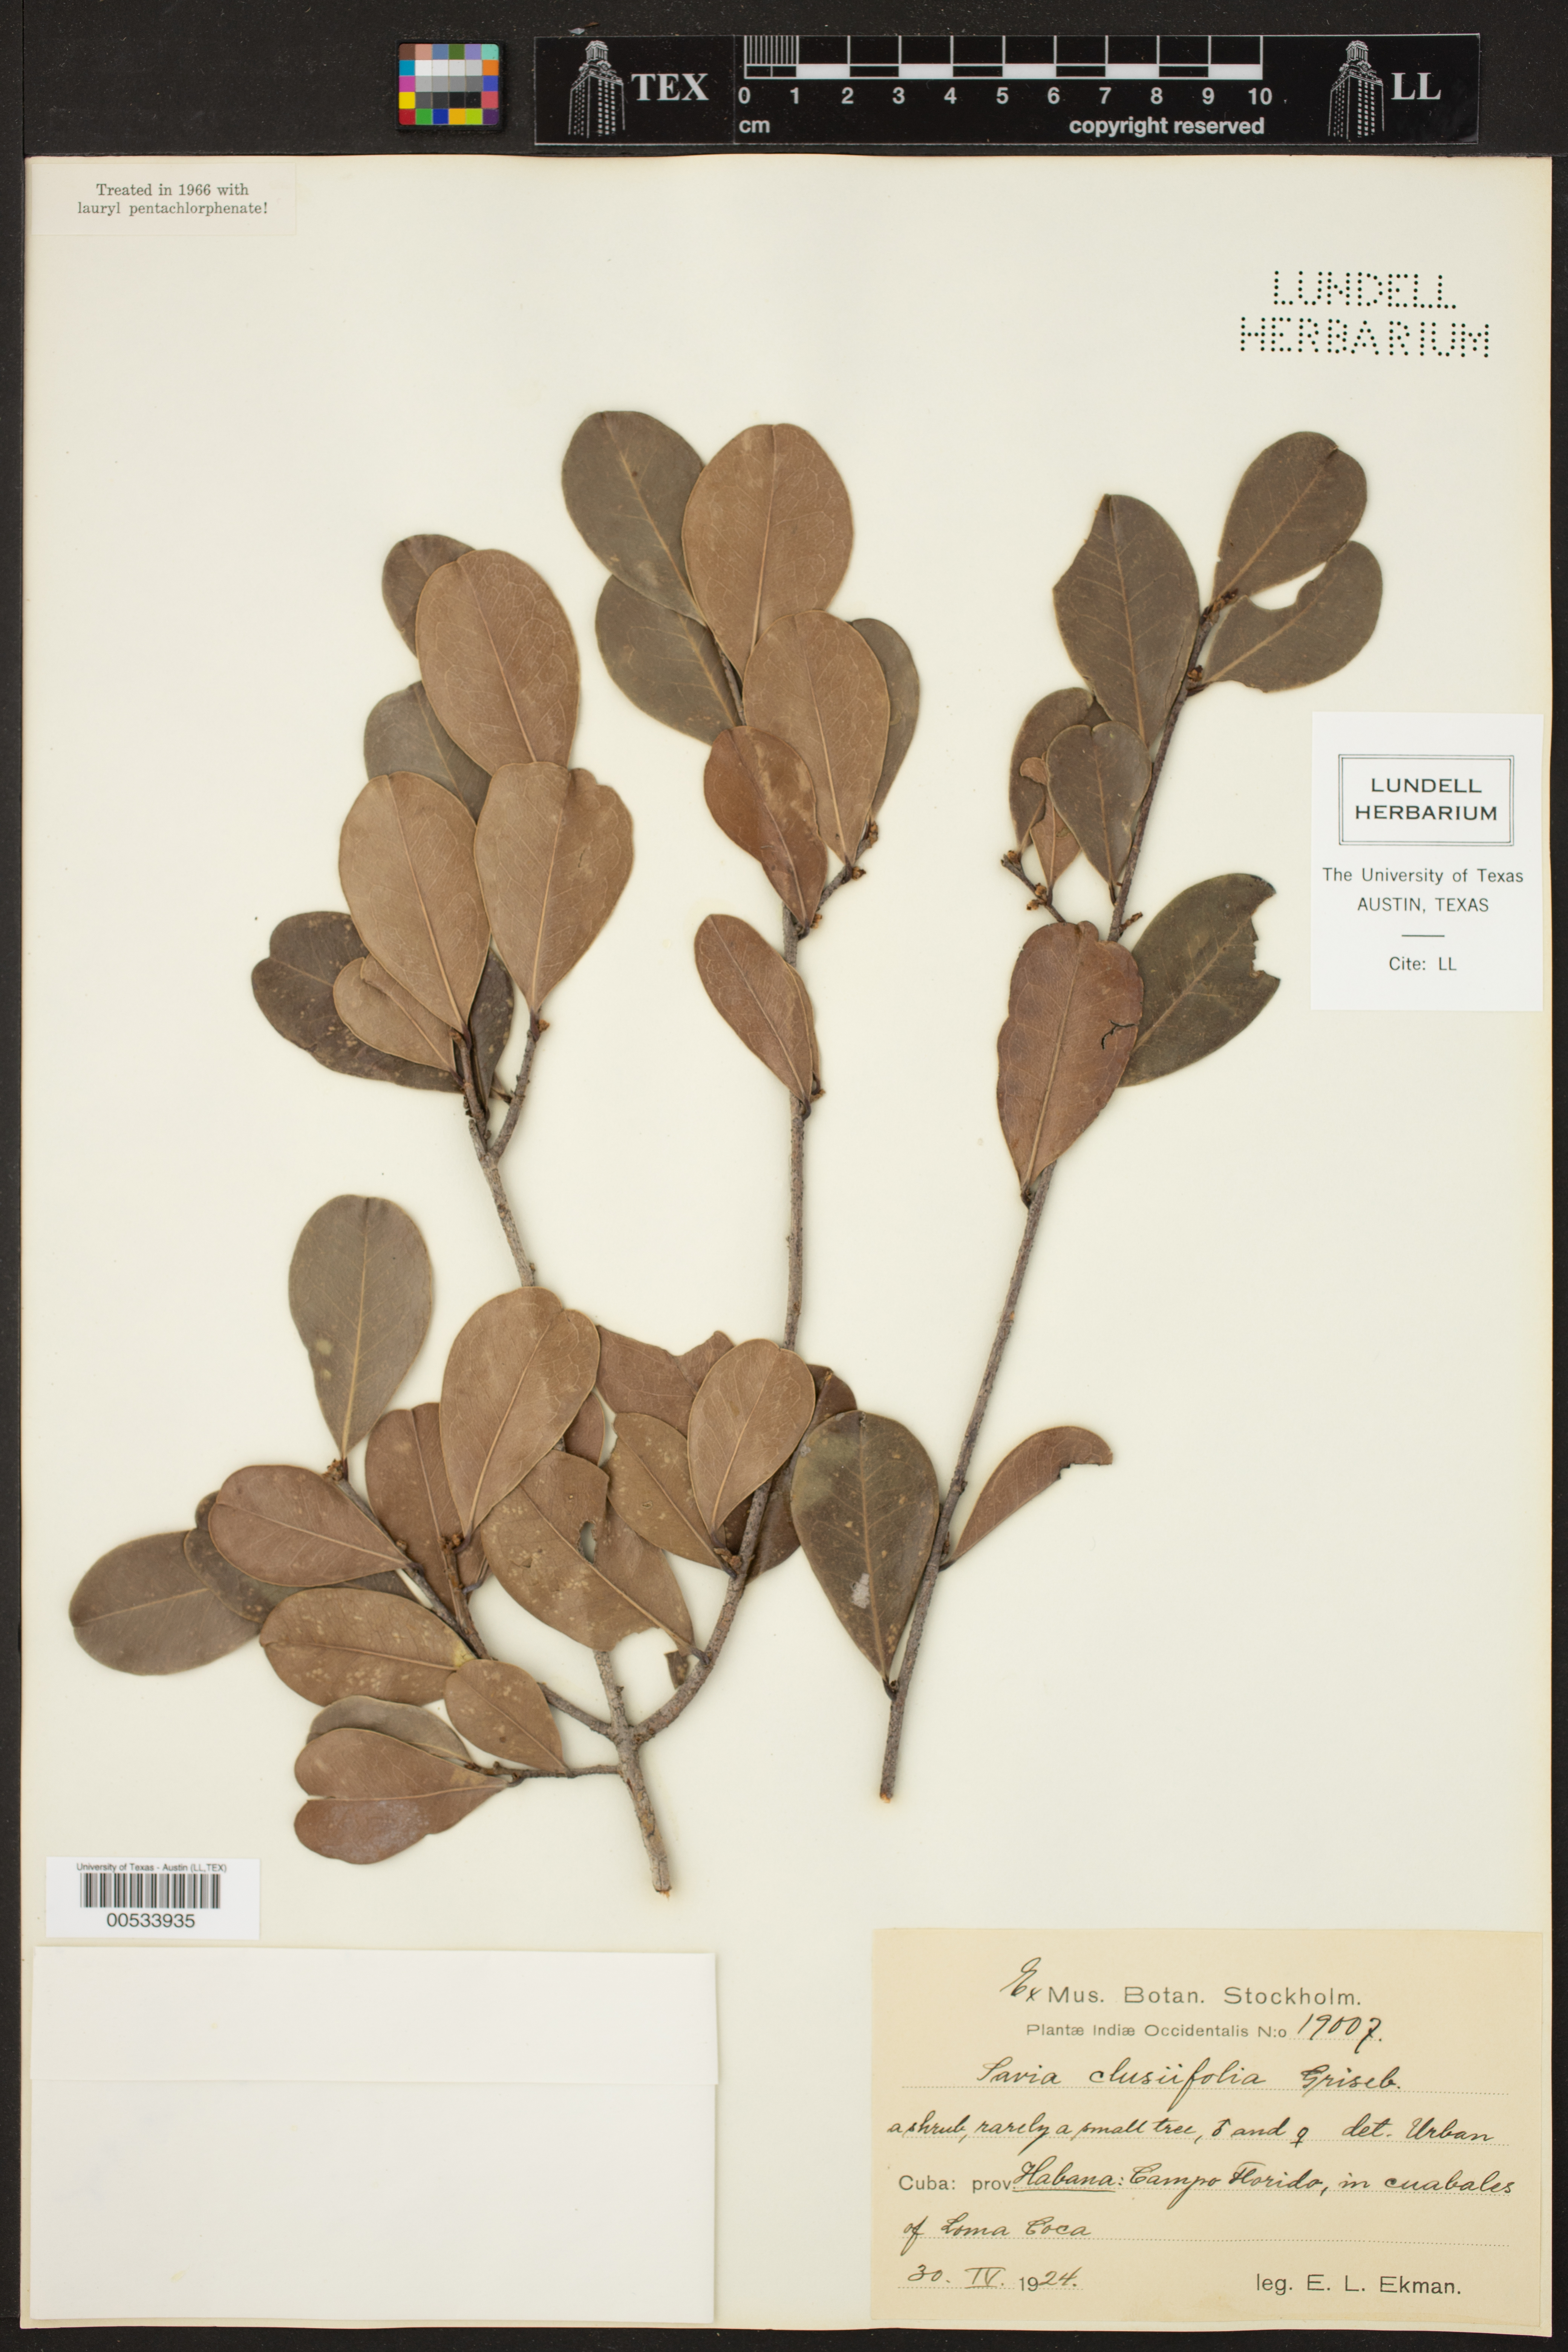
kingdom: Plantae
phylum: Tracheophyta
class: Magnoliopsida
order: Malpighiales
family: Phyllanthaceae
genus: Heterosavia
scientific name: Heterosavia bahamensis
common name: Bahama maidenbush
